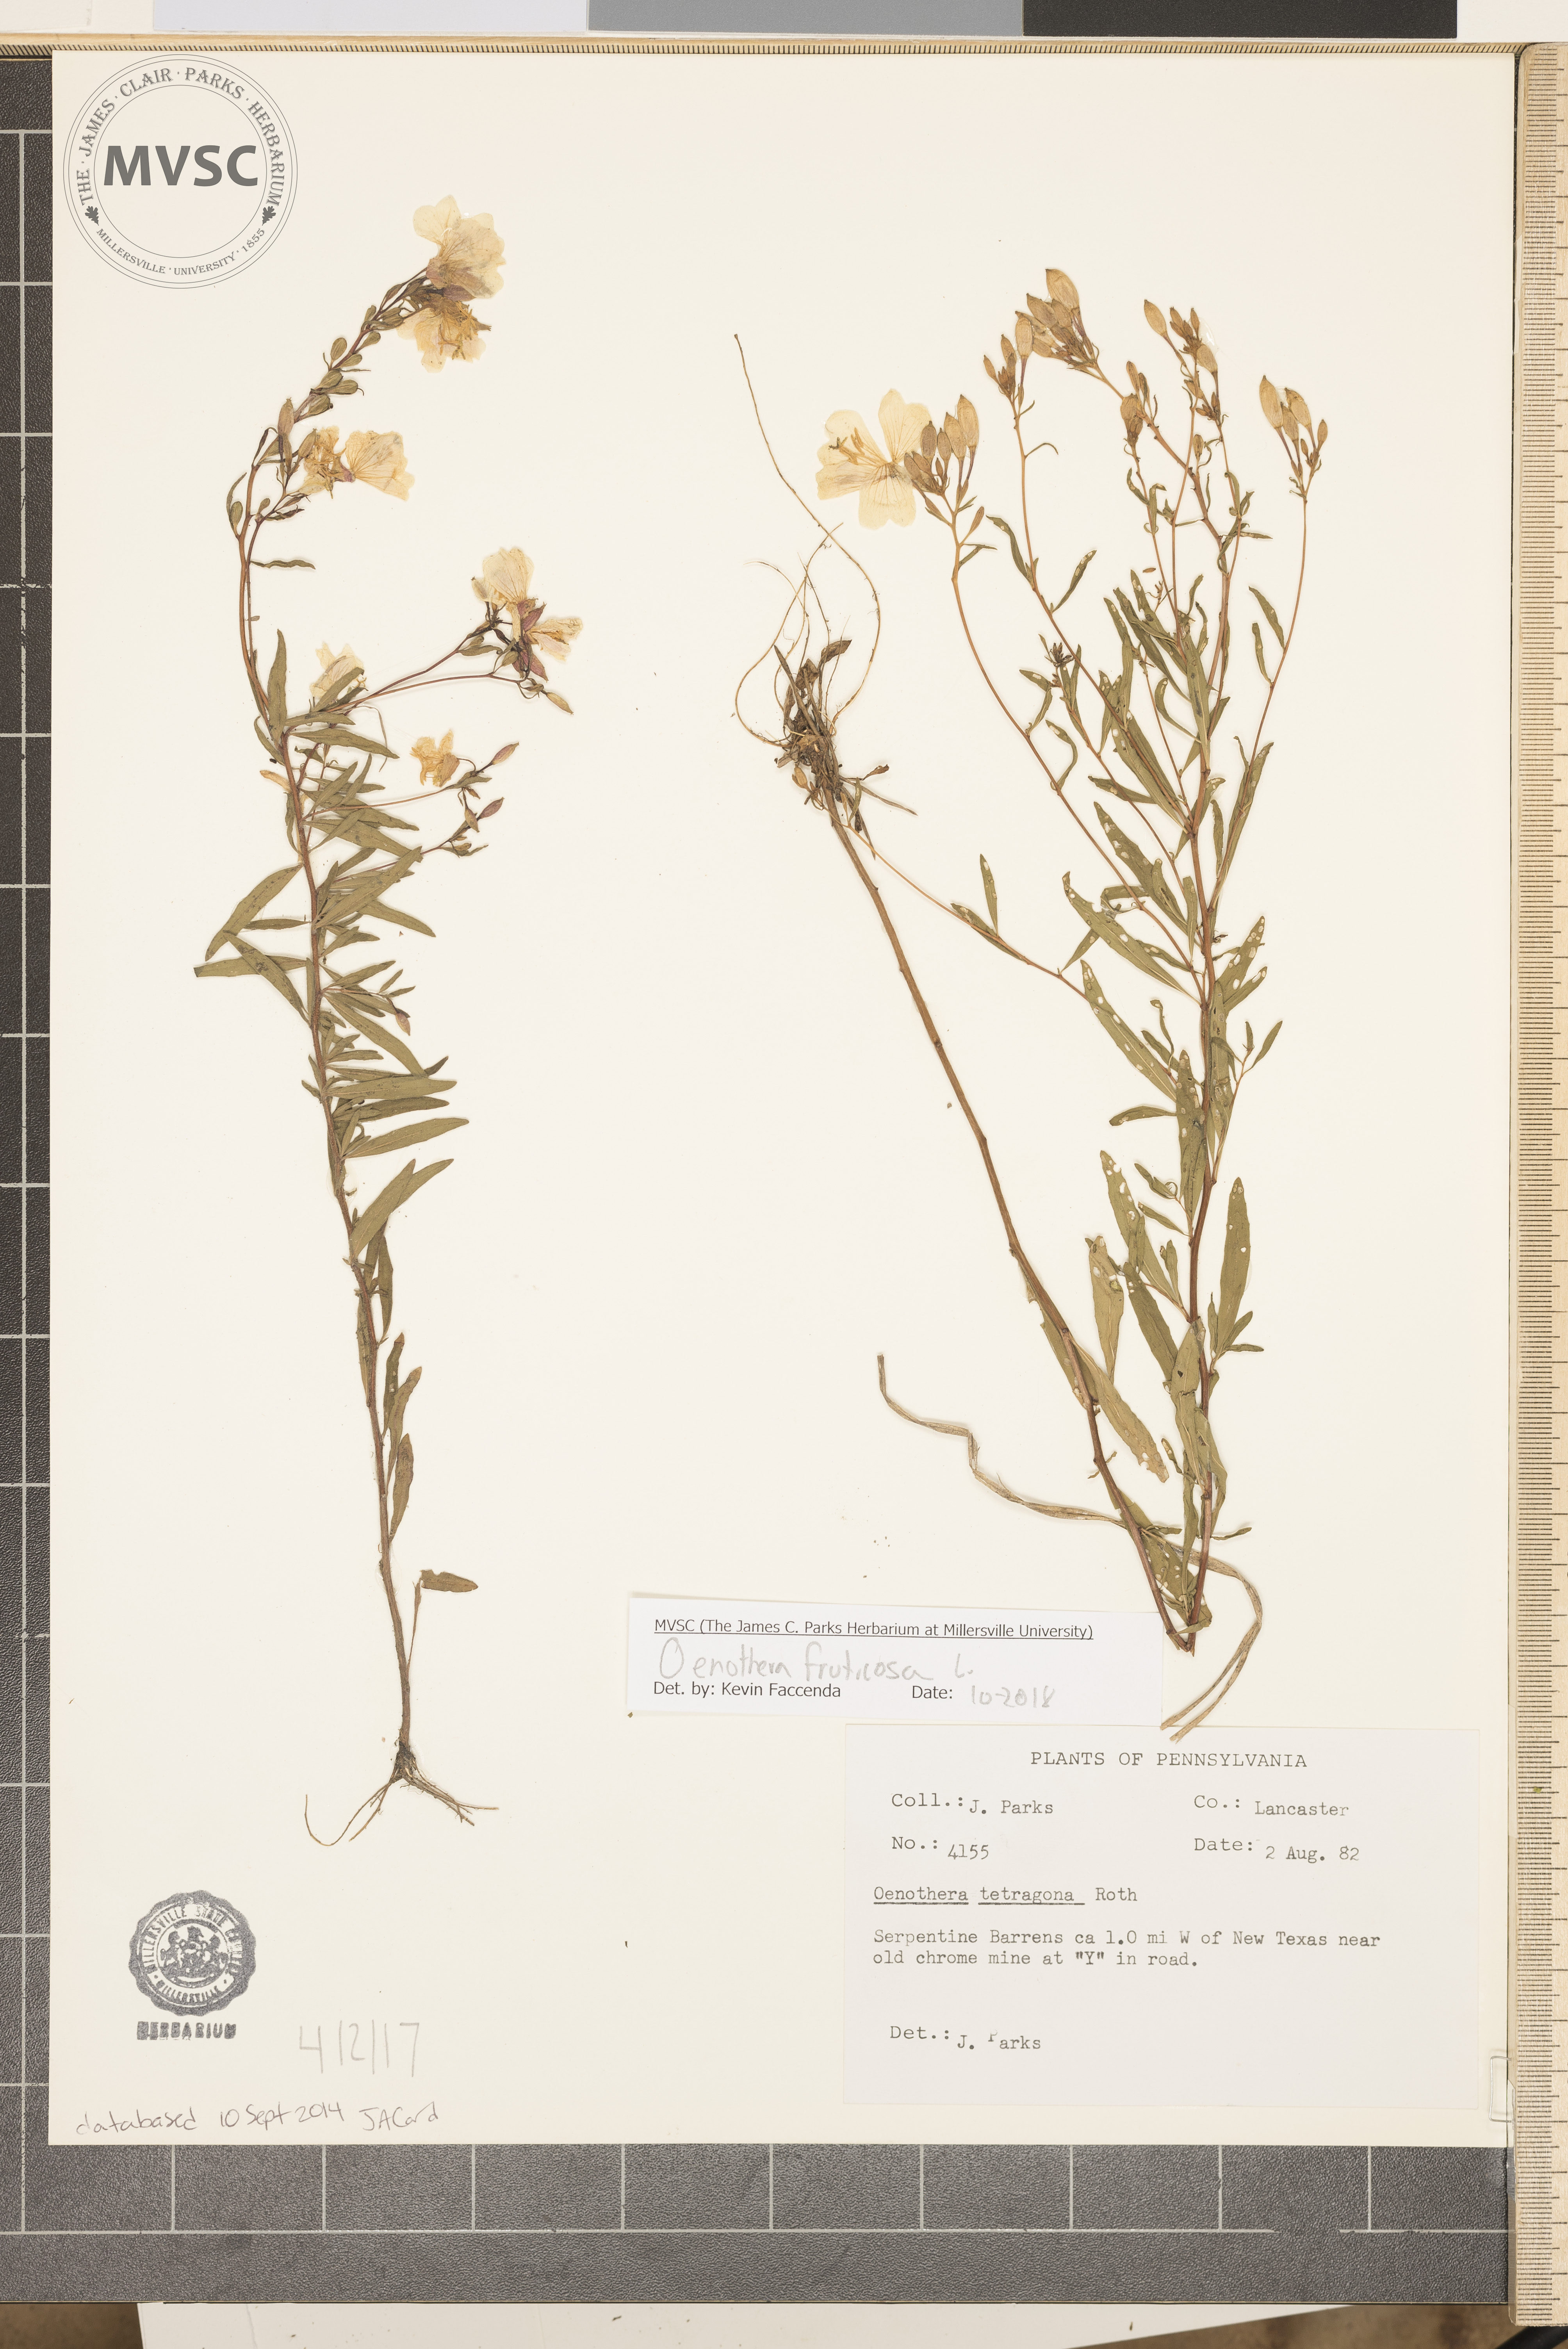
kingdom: Plantae
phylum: Tracheophyta
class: Magnoliopsida
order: Myrtales
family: Onagraceae
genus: Oenothera
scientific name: Oenothera fruticosa
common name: Southern sundrops
